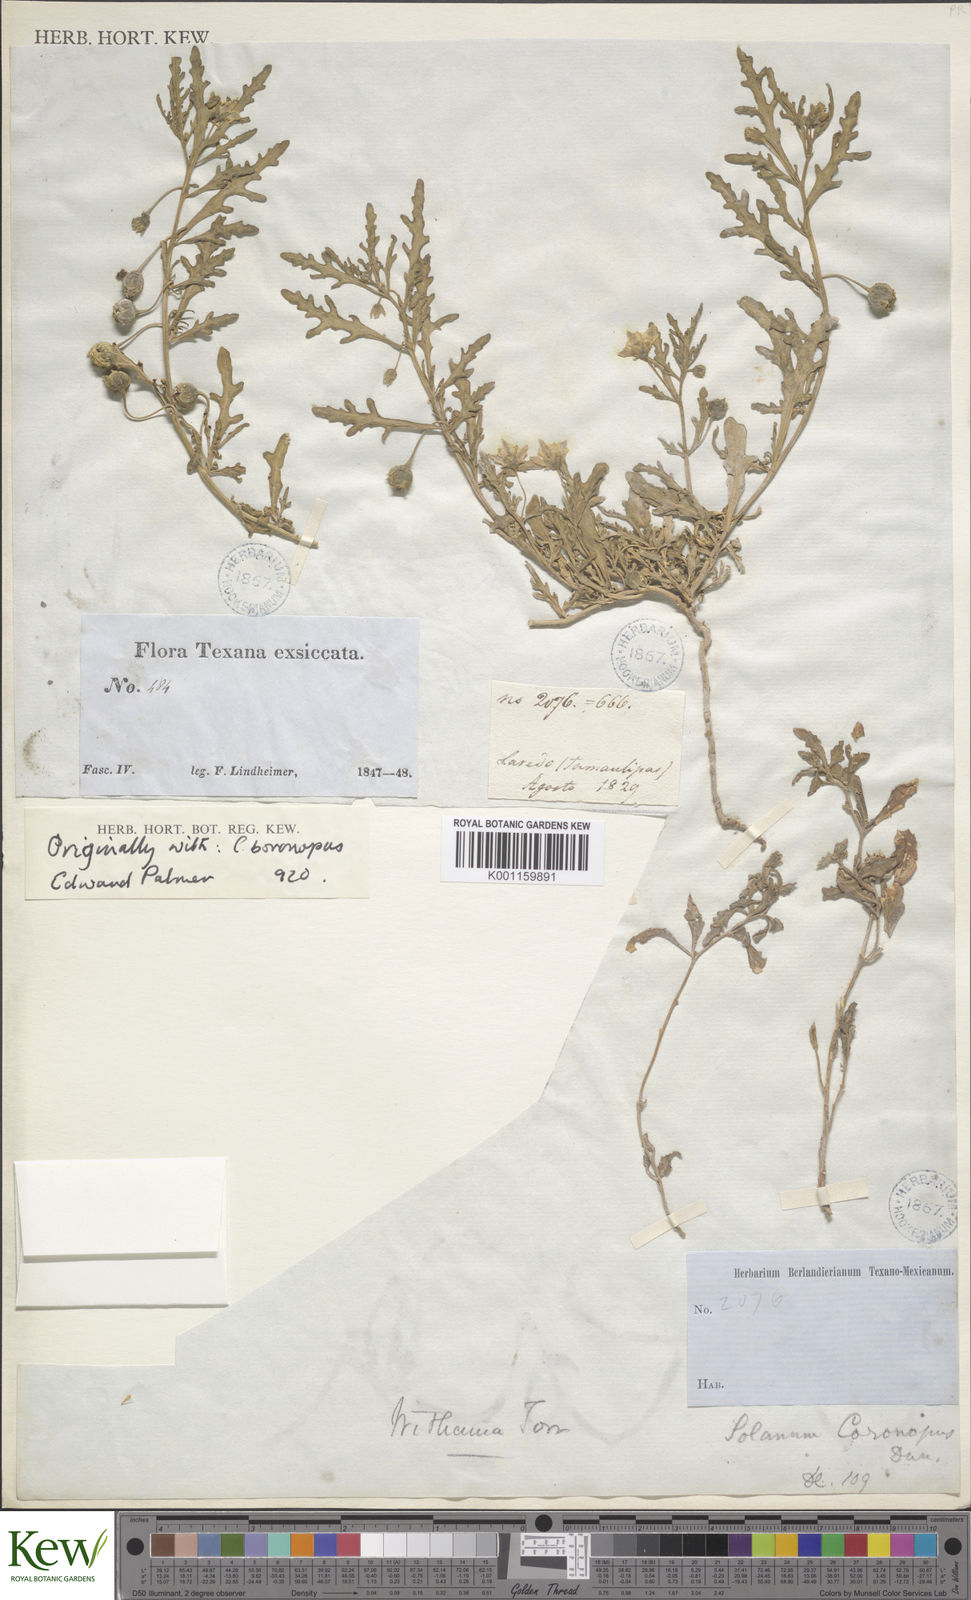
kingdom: Plantae
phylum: Tracheophyta
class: Magnoliopsida
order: Solanales
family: Solanaceae
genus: Chamaesaracha
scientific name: Chamaesaracha coronopus
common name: Smooth chamaesaracha
